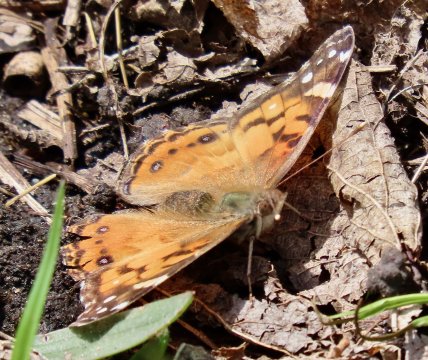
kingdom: Animalia
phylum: Arthropoda
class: Insecta
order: Lepidoptera
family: Nymphalidae
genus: Vanessa
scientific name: Vanessa virginiensis
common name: American Lady
